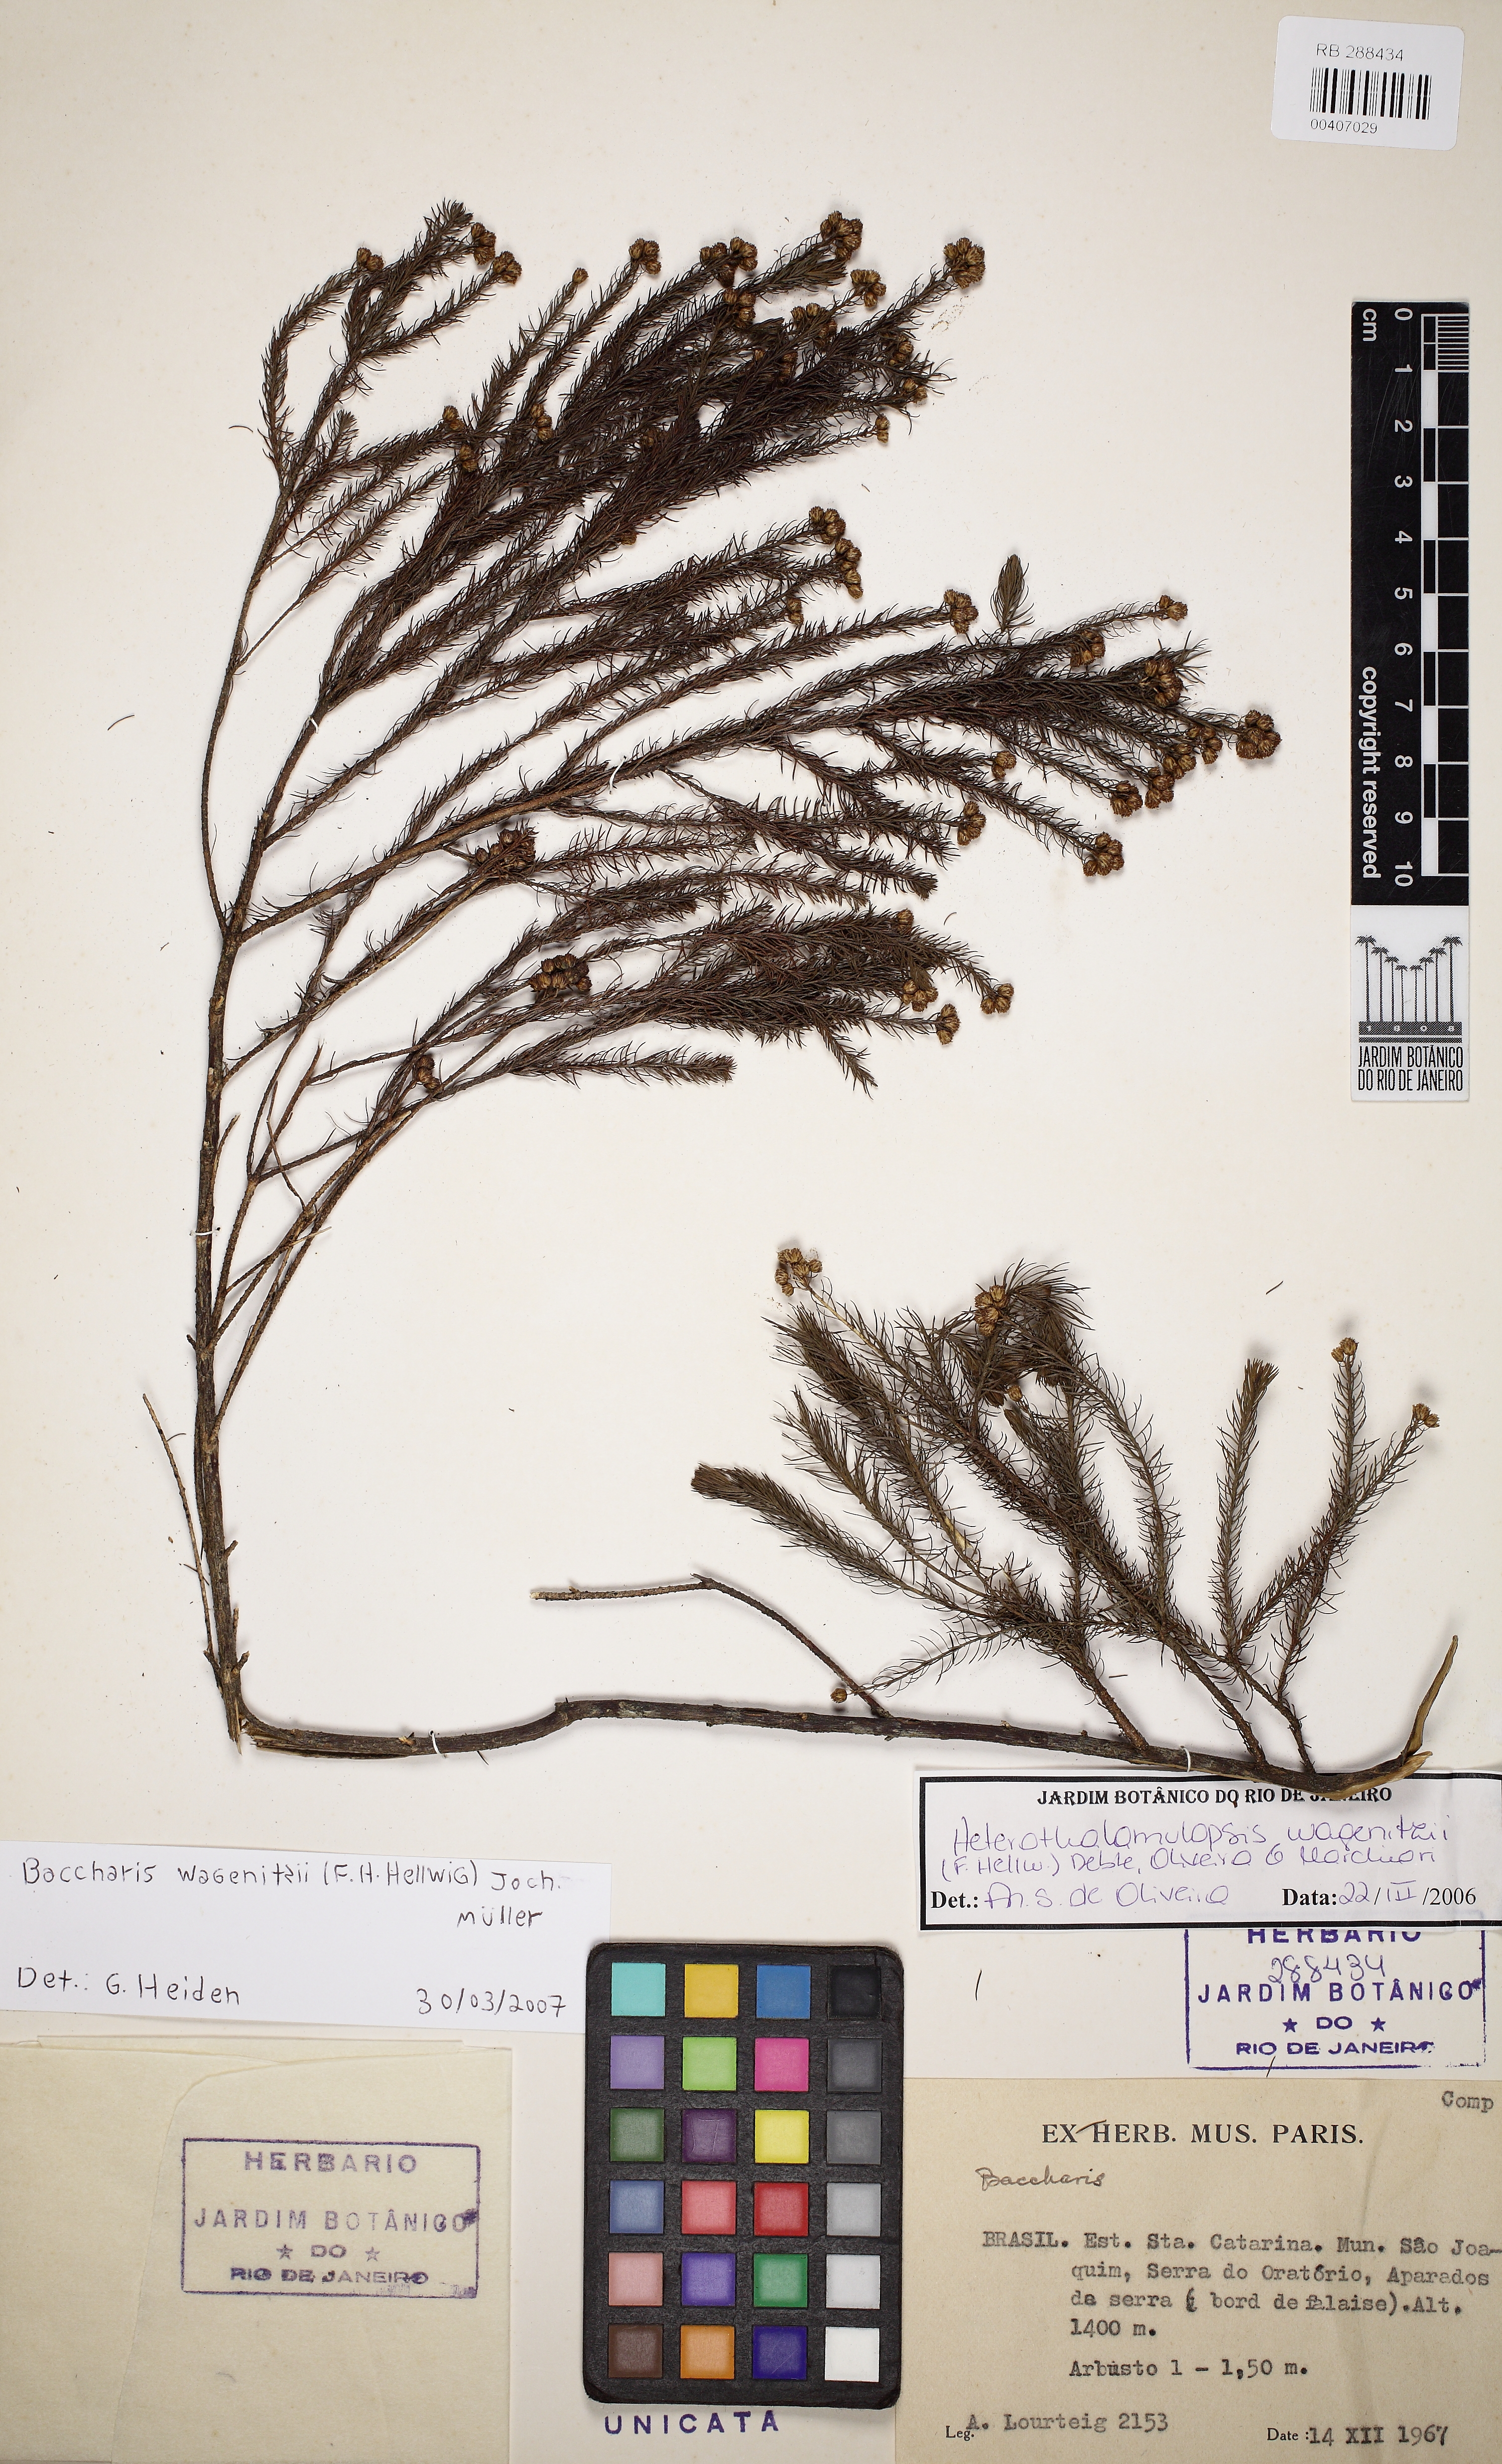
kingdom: Plantae
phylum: Tracheophyta
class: Magnoliopsida
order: Asterales
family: Asteraceae
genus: Baccharis
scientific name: Baccharis wagenitzii
